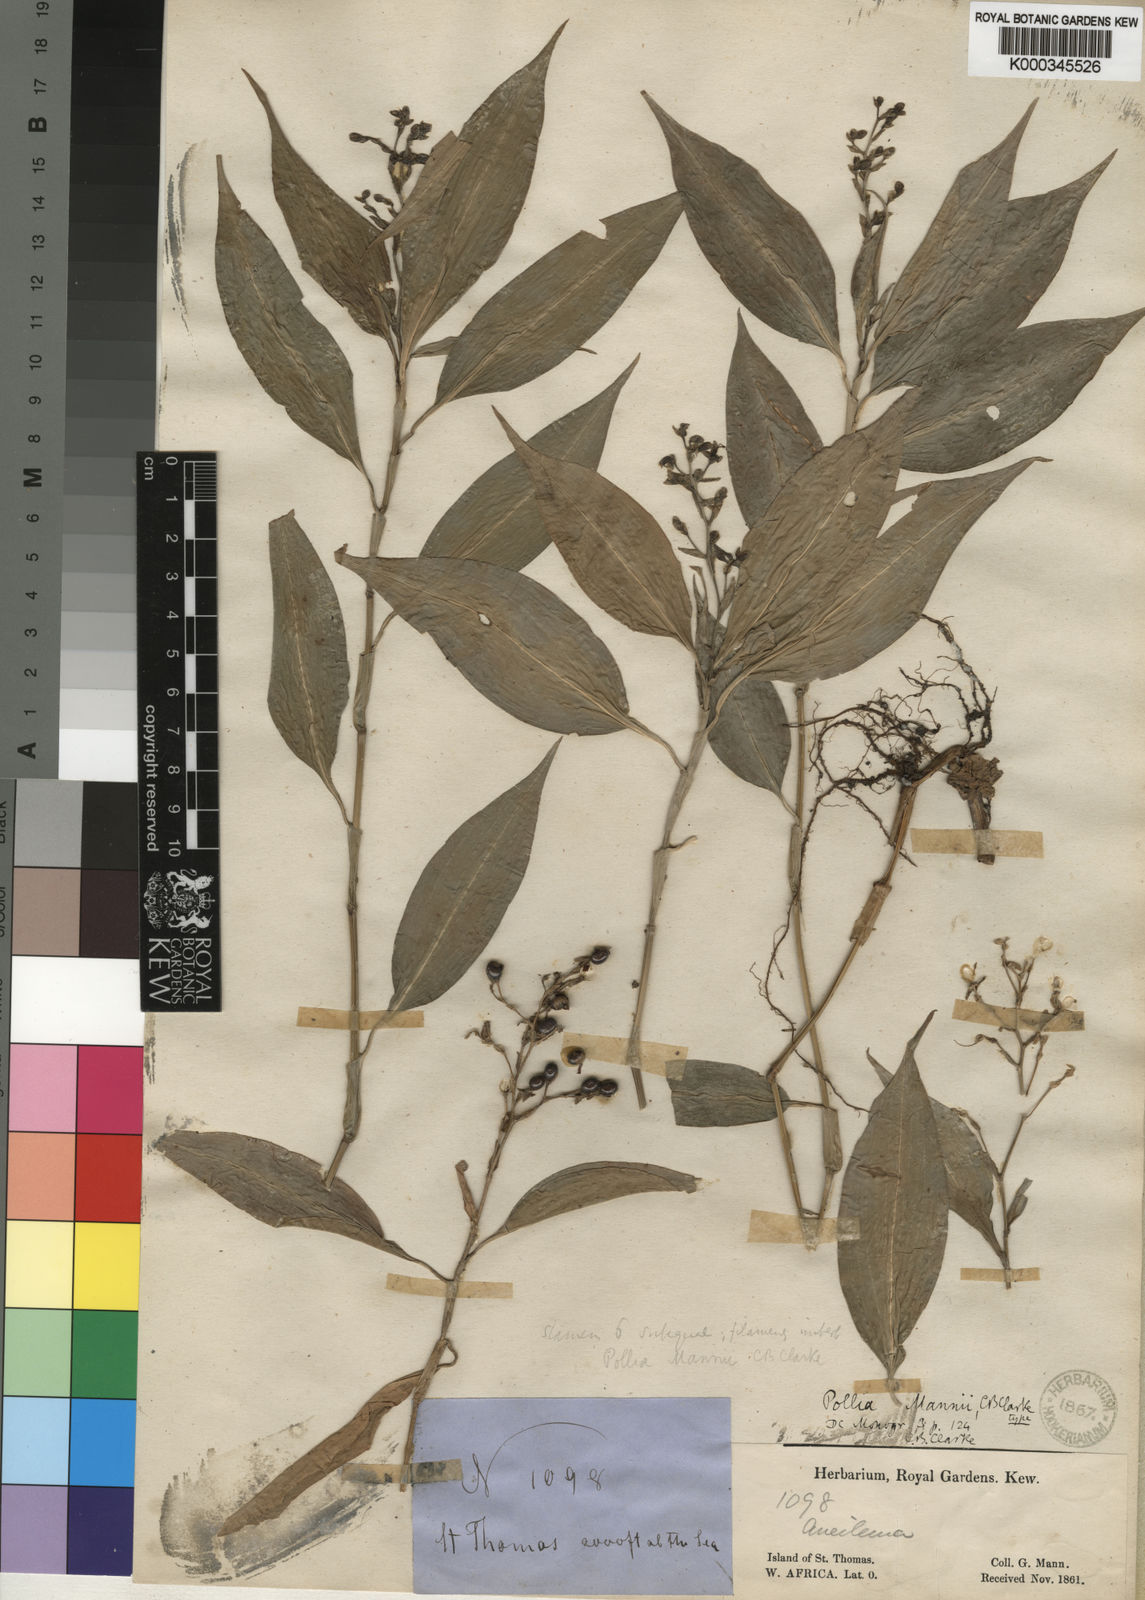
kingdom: Plantae
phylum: Tracheophyta
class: Liliopsida
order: Commelinales
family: Commelinaceae
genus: Pollia
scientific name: Pollia mannii
